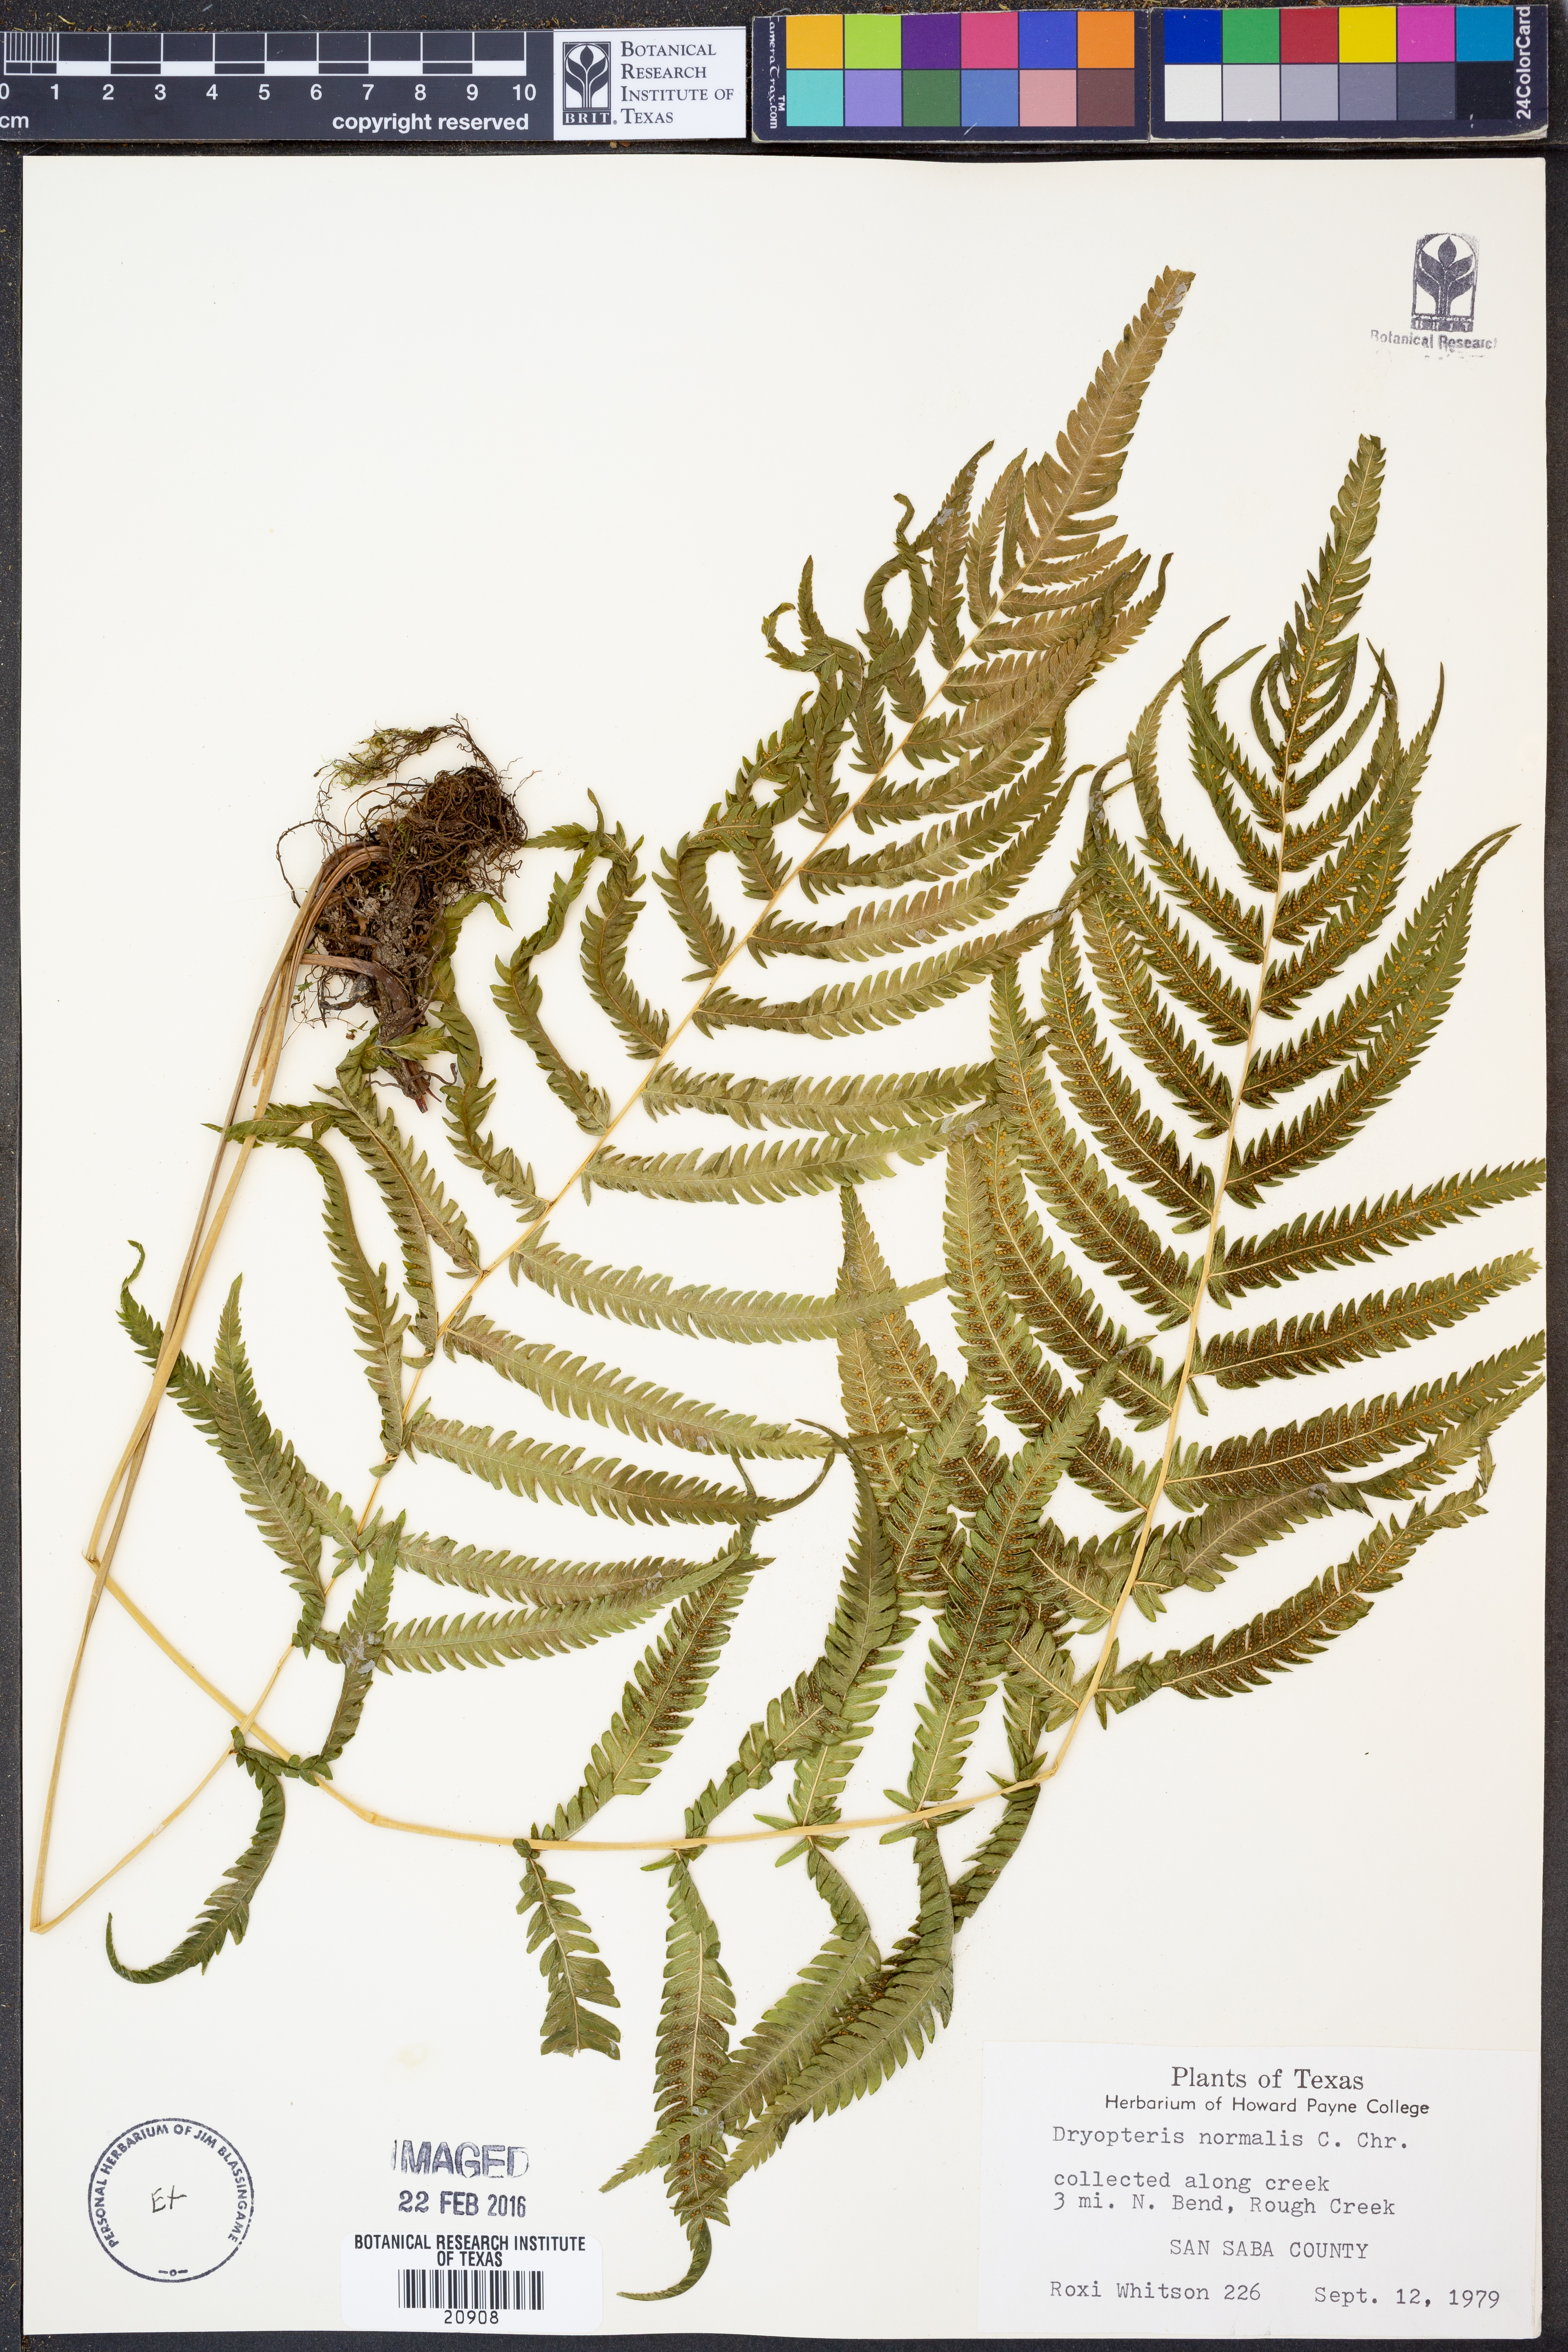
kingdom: Plantae
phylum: Tracheophyta
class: Polypodiopsida
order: Polypodiales
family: Thelypteridaceae
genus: Pelazoneuron
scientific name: Pelazoneuron kunthii
